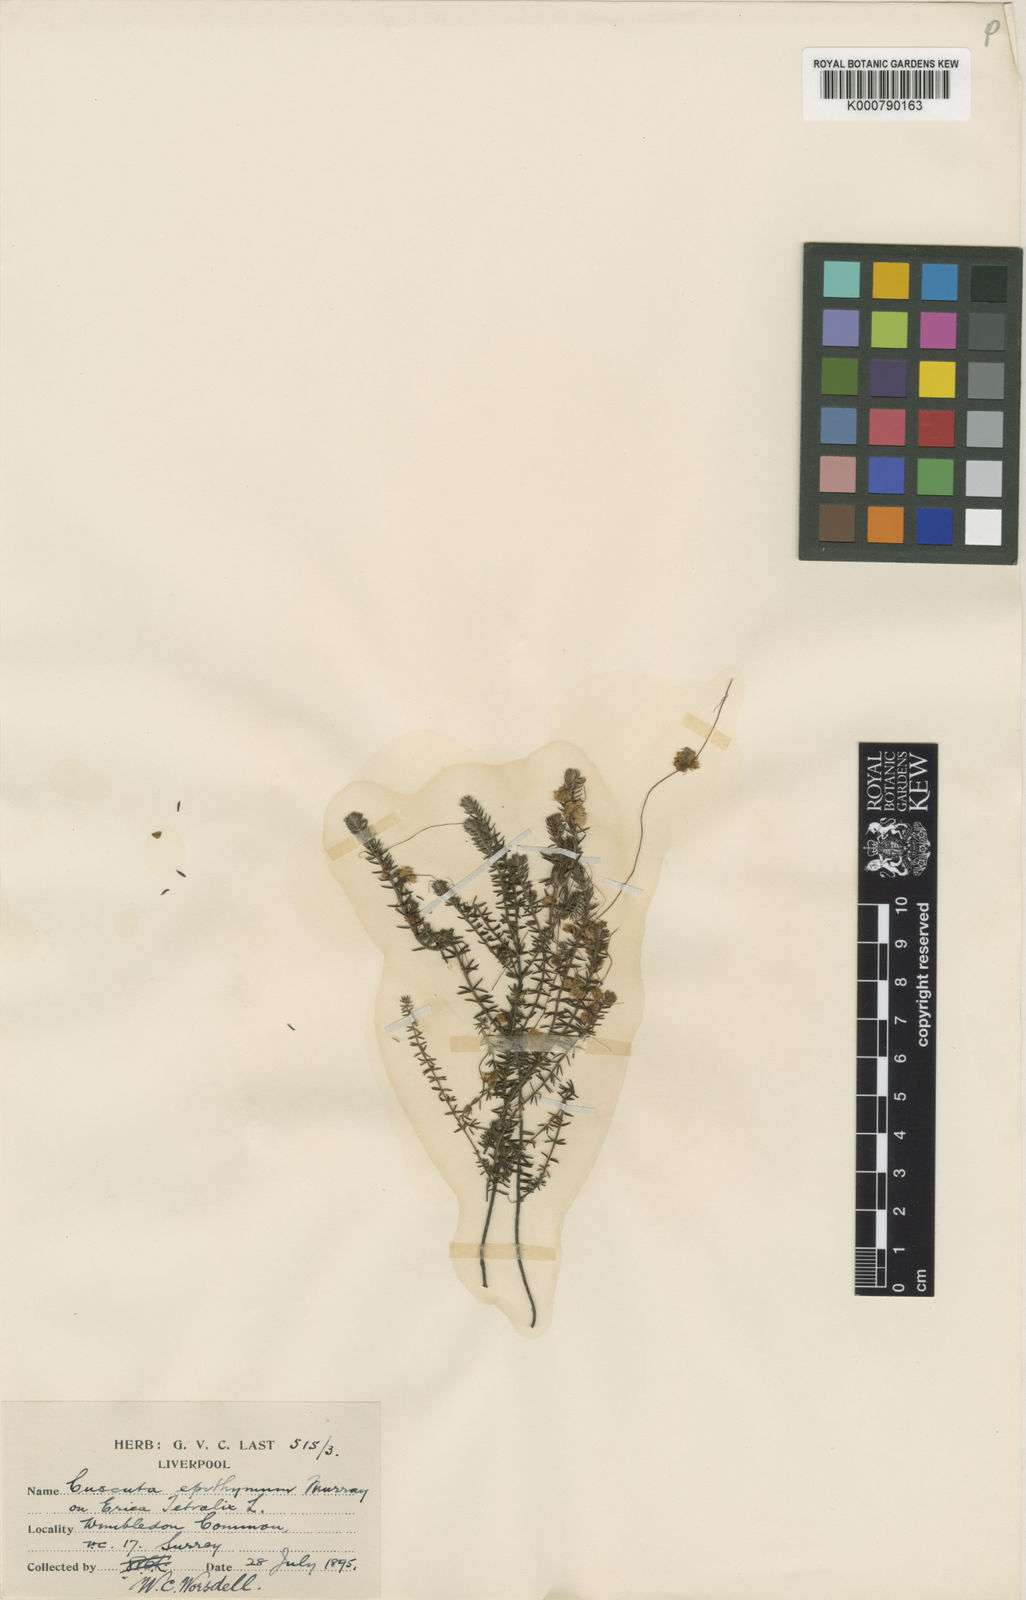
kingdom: Plantae
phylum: Tracheophyta
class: Magnoliopsida
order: Solanales
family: Convolvulaceae
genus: Cuscuta
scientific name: Cuscuta epithymum
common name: Clover dodder
